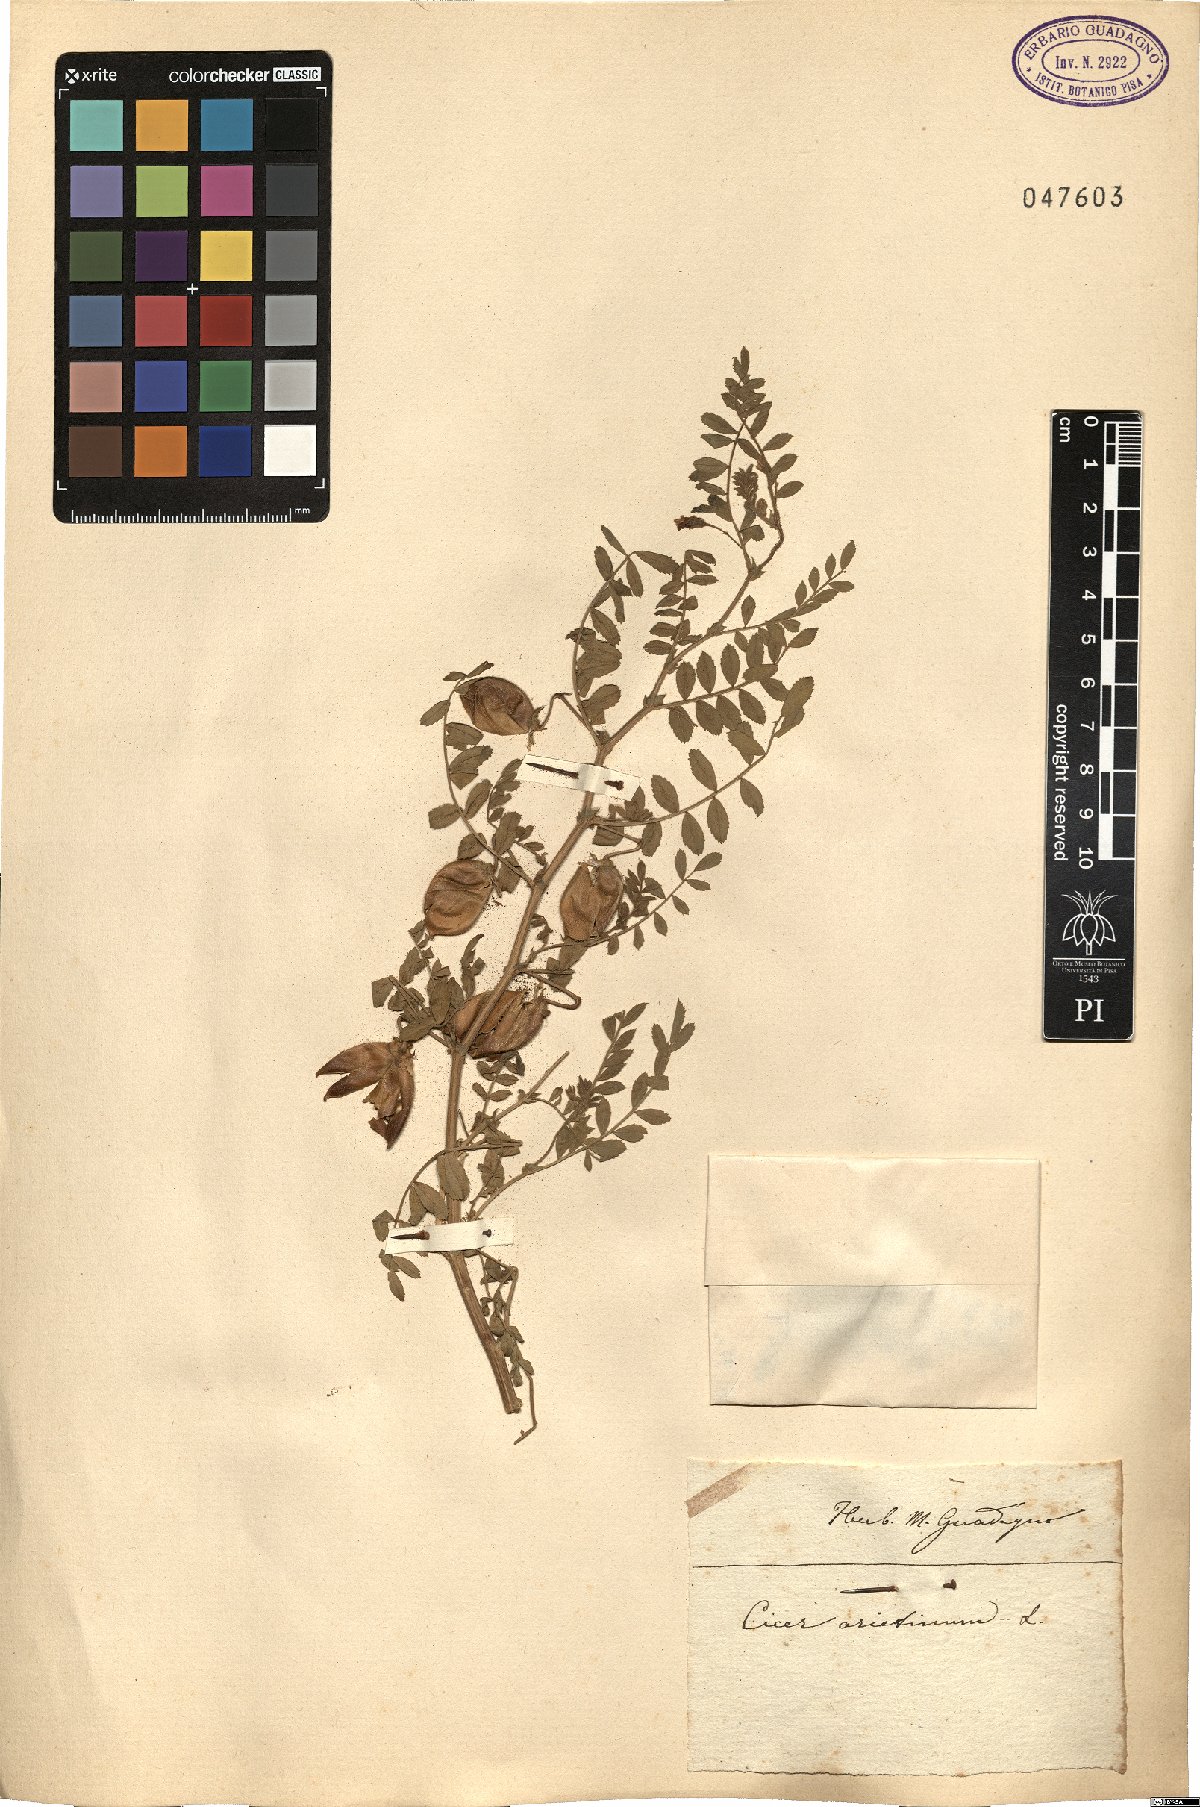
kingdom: Plantae
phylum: Tracheophyta
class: Magnoliopsida
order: Fabales
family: Fabaceae
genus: Cicer
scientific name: Cicer arietinum
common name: Chick pea
